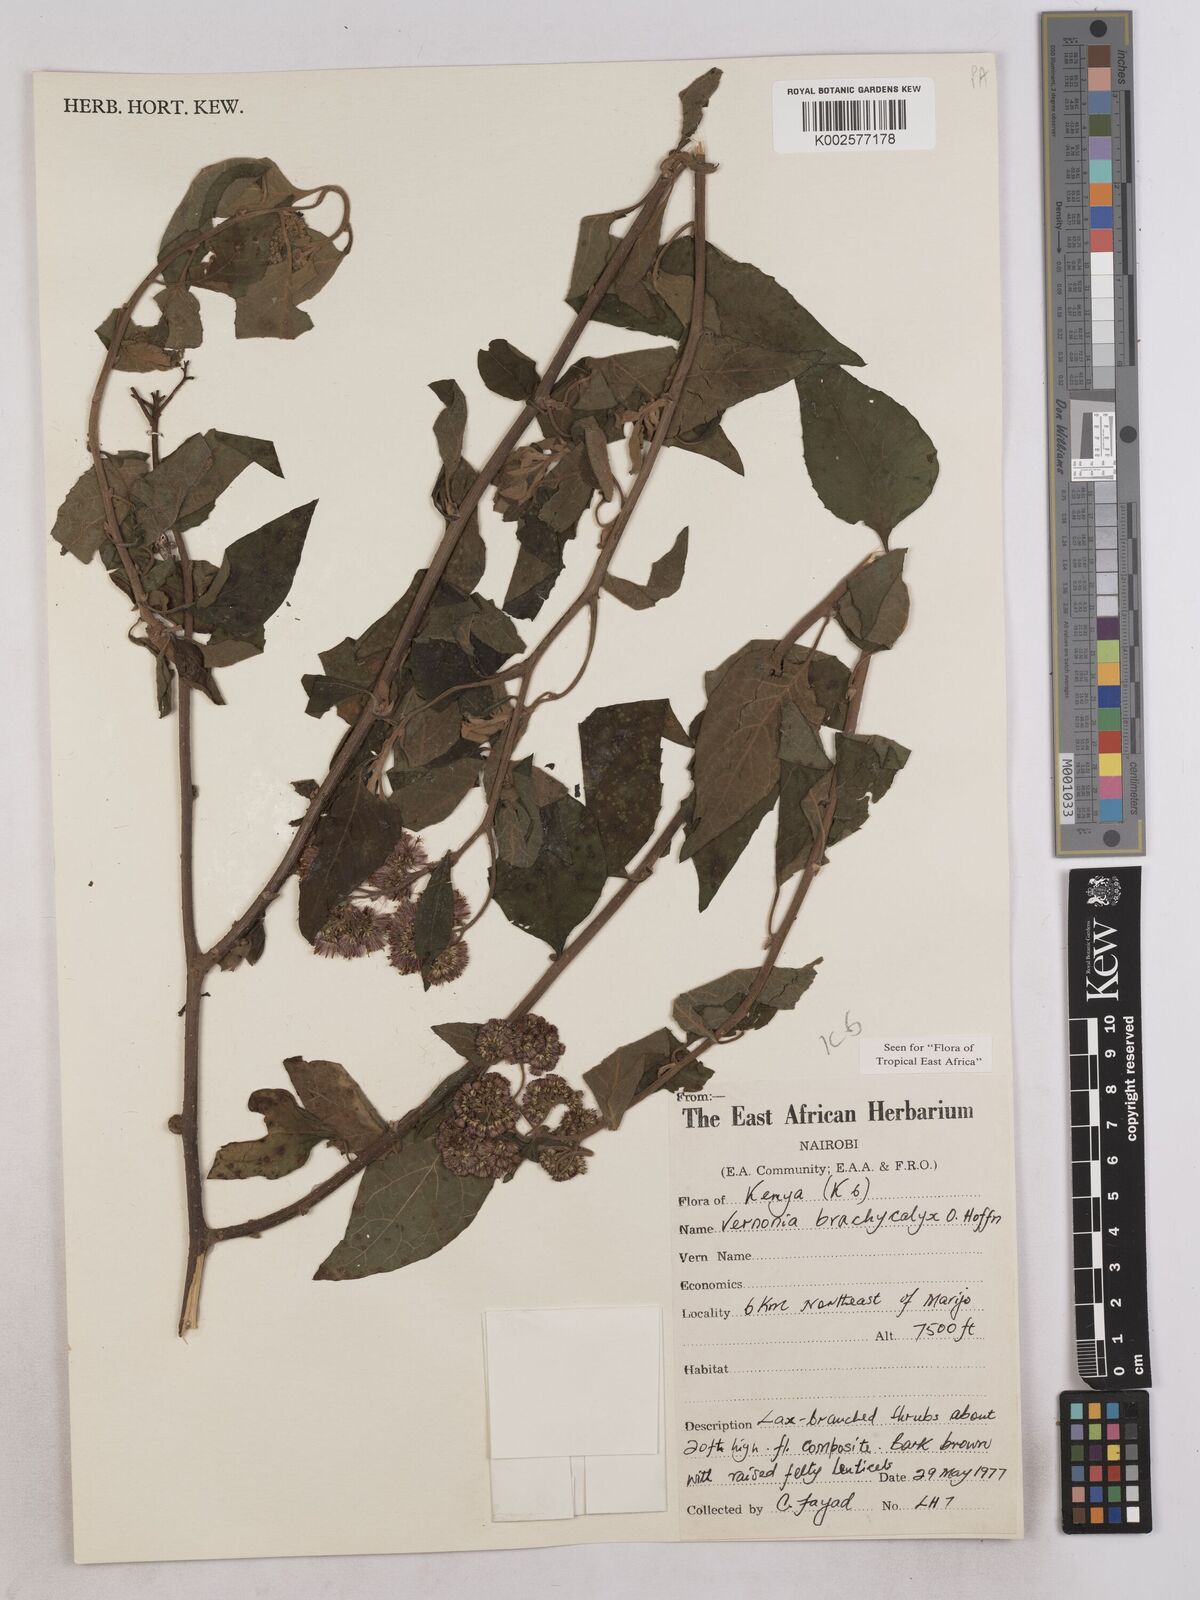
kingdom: Plantae
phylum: Tracheophyta
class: Magnoliopsida
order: Asterales
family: Asteraceae
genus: Hoffmannanthus
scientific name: Hoffmannanthus abbotianus
